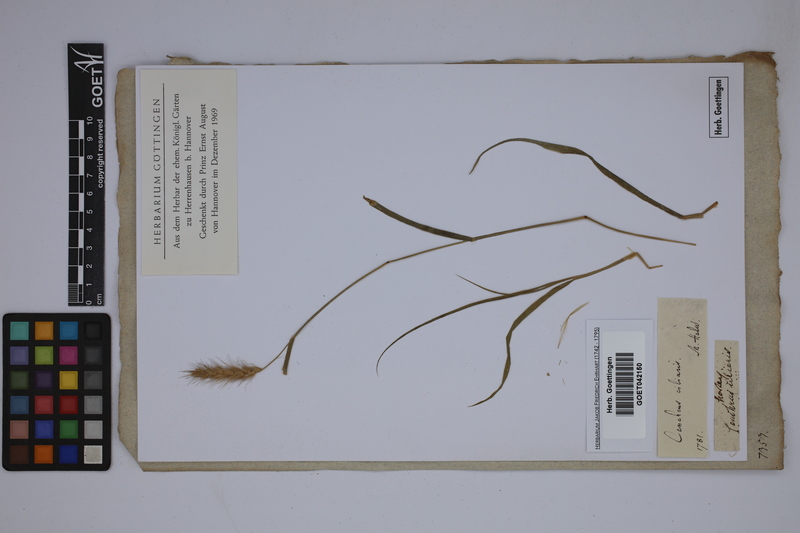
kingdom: Plantae
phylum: Tracheophyta
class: Liliopsida
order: Poales
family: Poaceae
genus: Cenchrus
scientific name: Cenchrus ciliaris
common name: Buffelgrass
